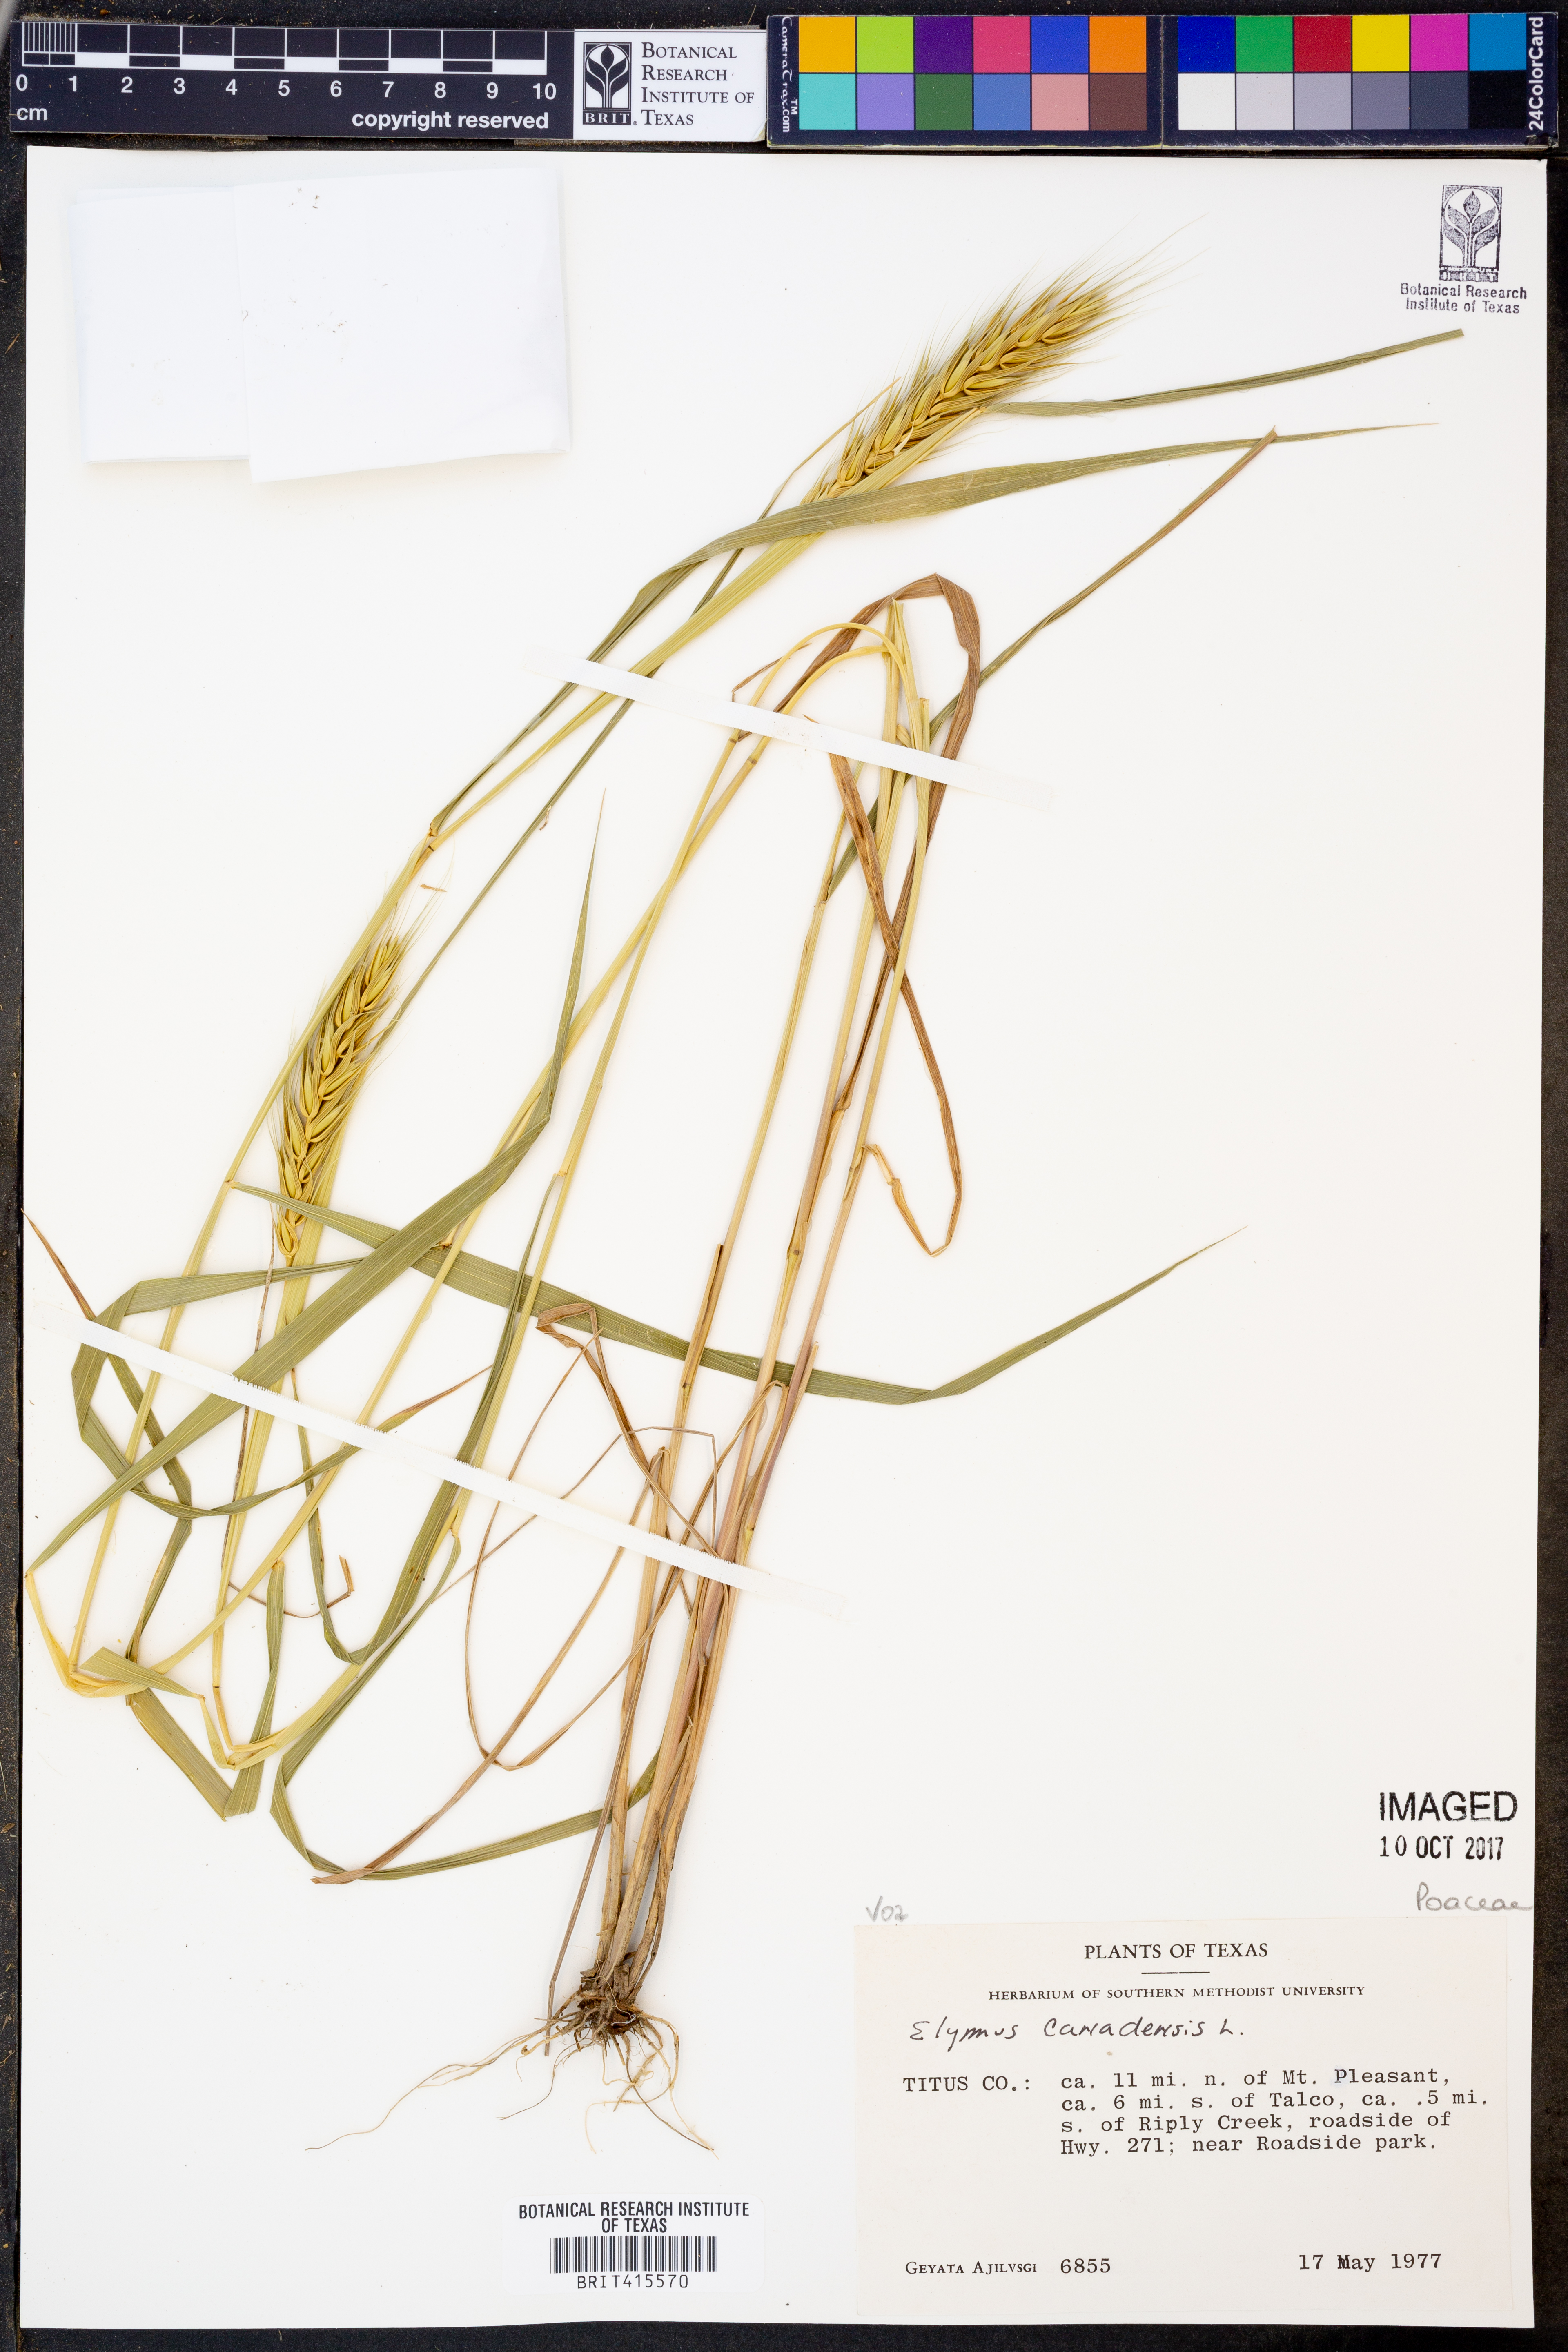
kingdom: Plantae
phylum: Tracheophyta
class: Liliopsida
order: Poales
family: Poaceae
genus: Elymus
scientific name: Elymus canadensis
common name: Canada wild rye
